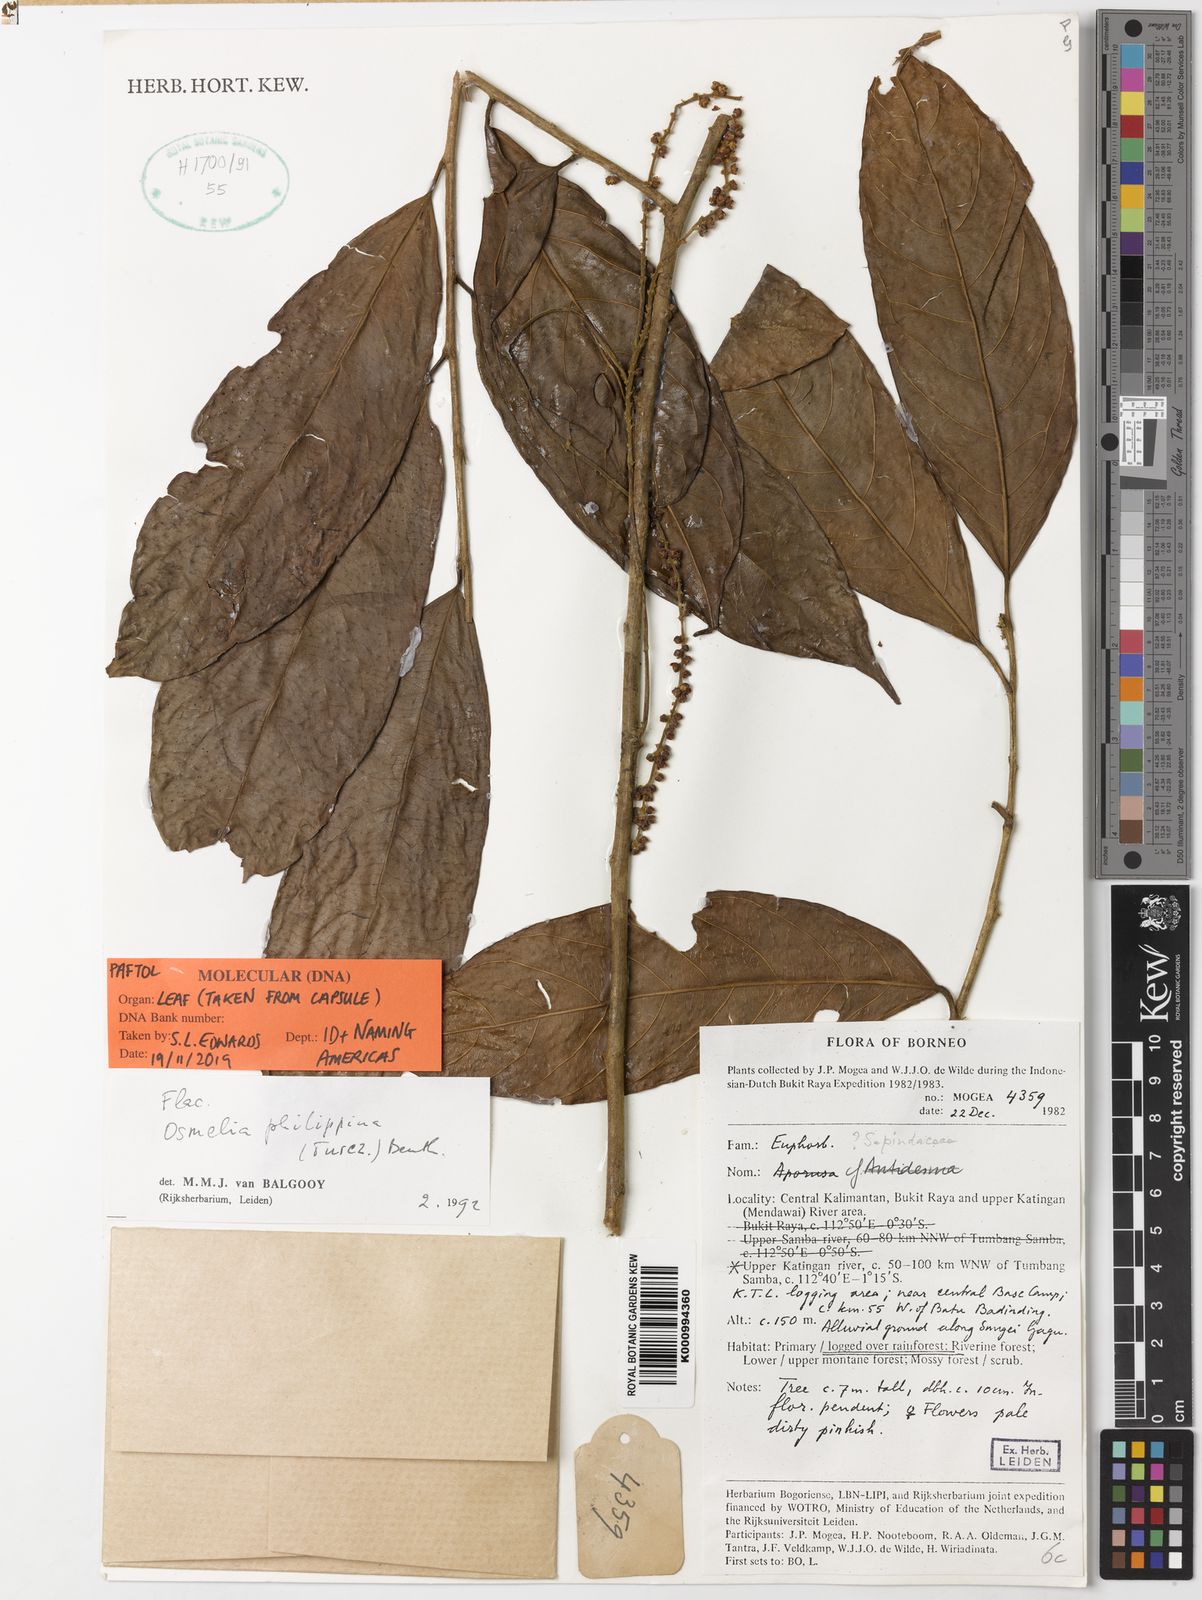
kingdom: Plantae
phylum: Tracheophyta
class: Magnoliopsida
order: Malpighiales
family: Salicaceae
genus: Osmelia
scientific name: Osmelia philippina
